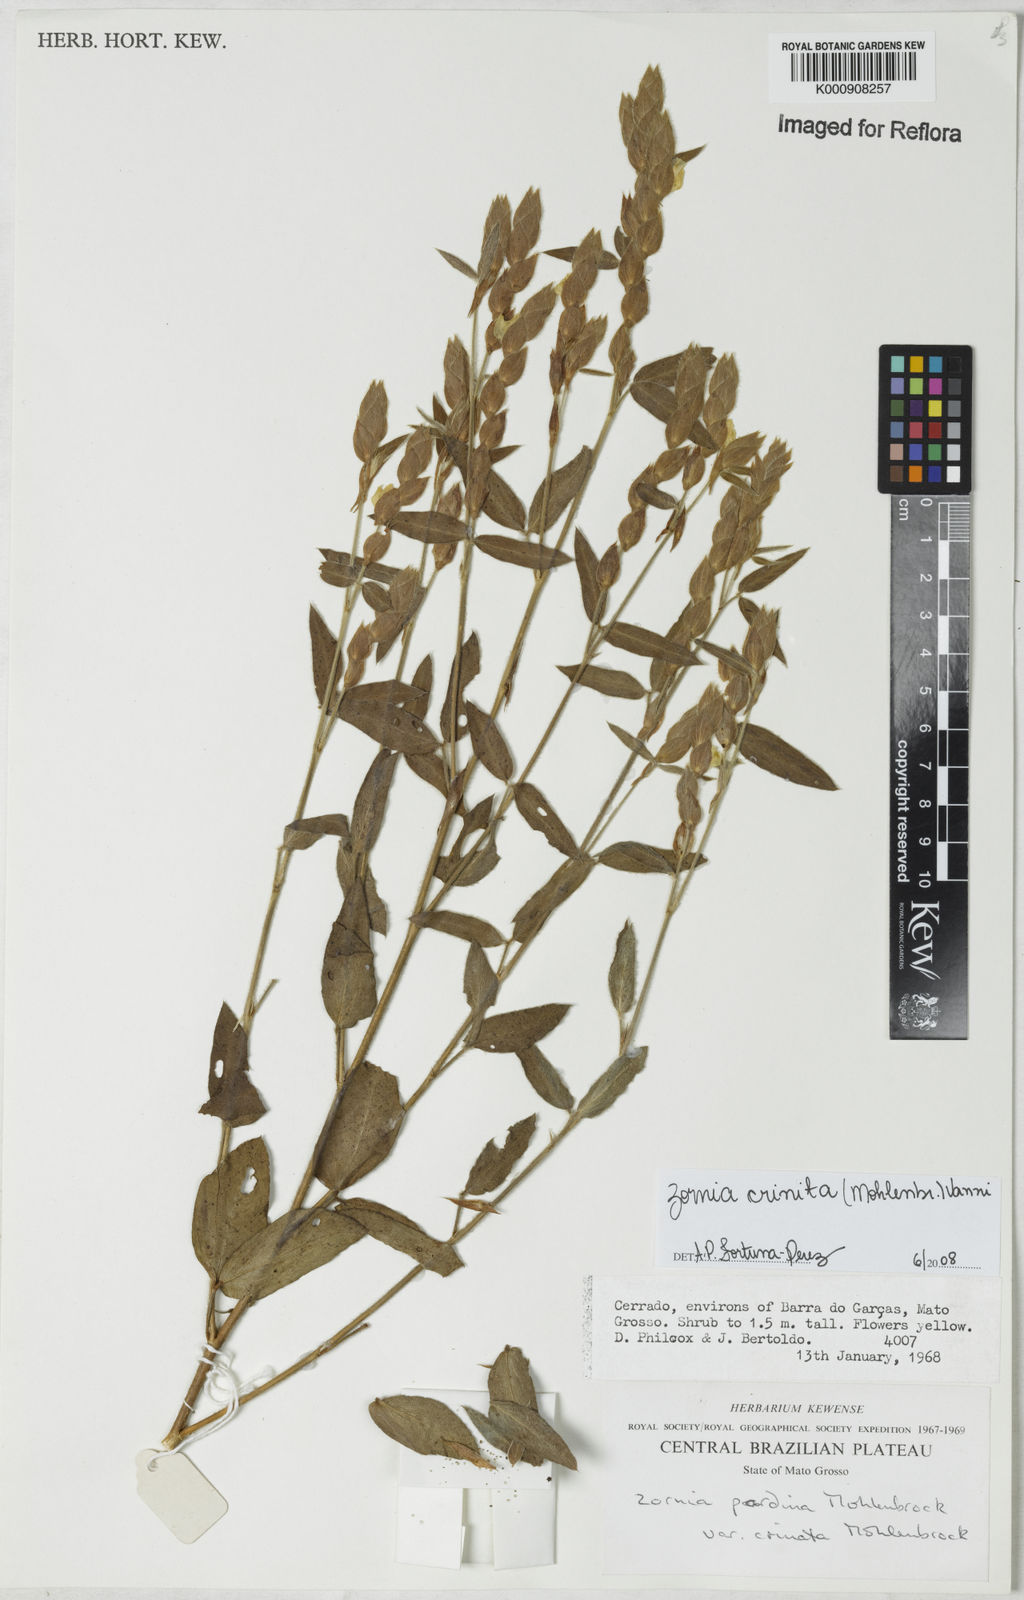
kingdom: Plantae
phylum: Tracheophyta
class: Magnoliopsida
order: Fabales
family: Fabaceae
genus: Zornia
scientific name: Zornia pardina
